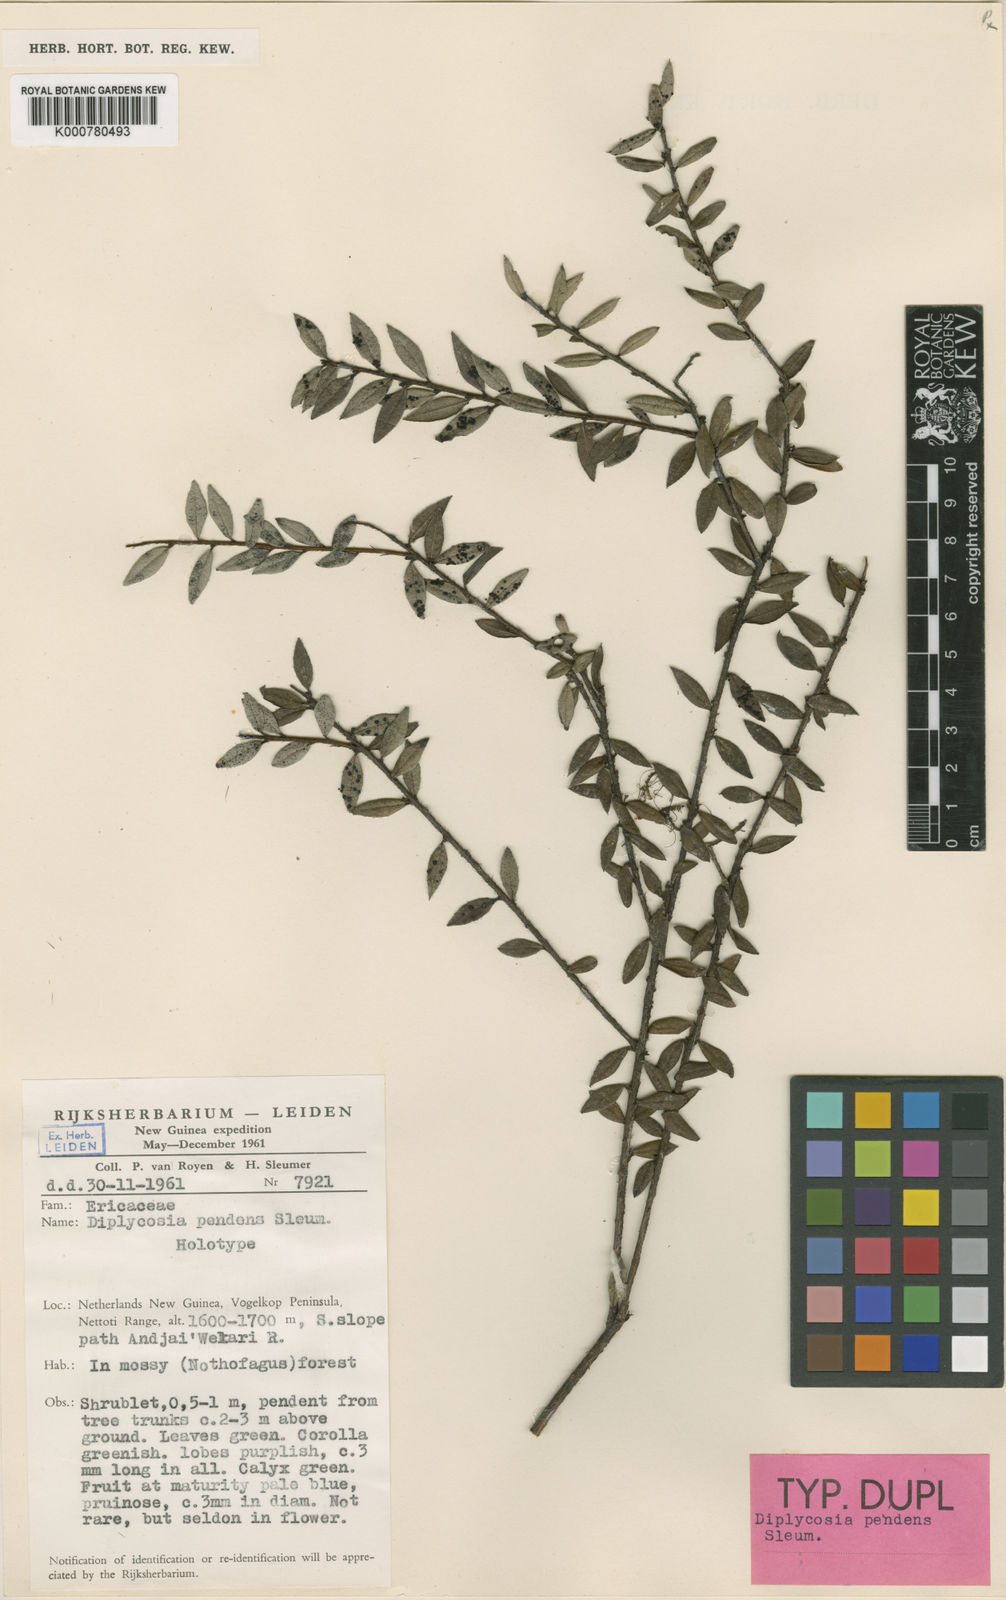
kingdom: Plantae
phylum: Tracheophyta
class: Magnoliopsida
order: Ericales
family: Ericaceae
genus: Gaultheria
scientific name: Gaultheria pendens
